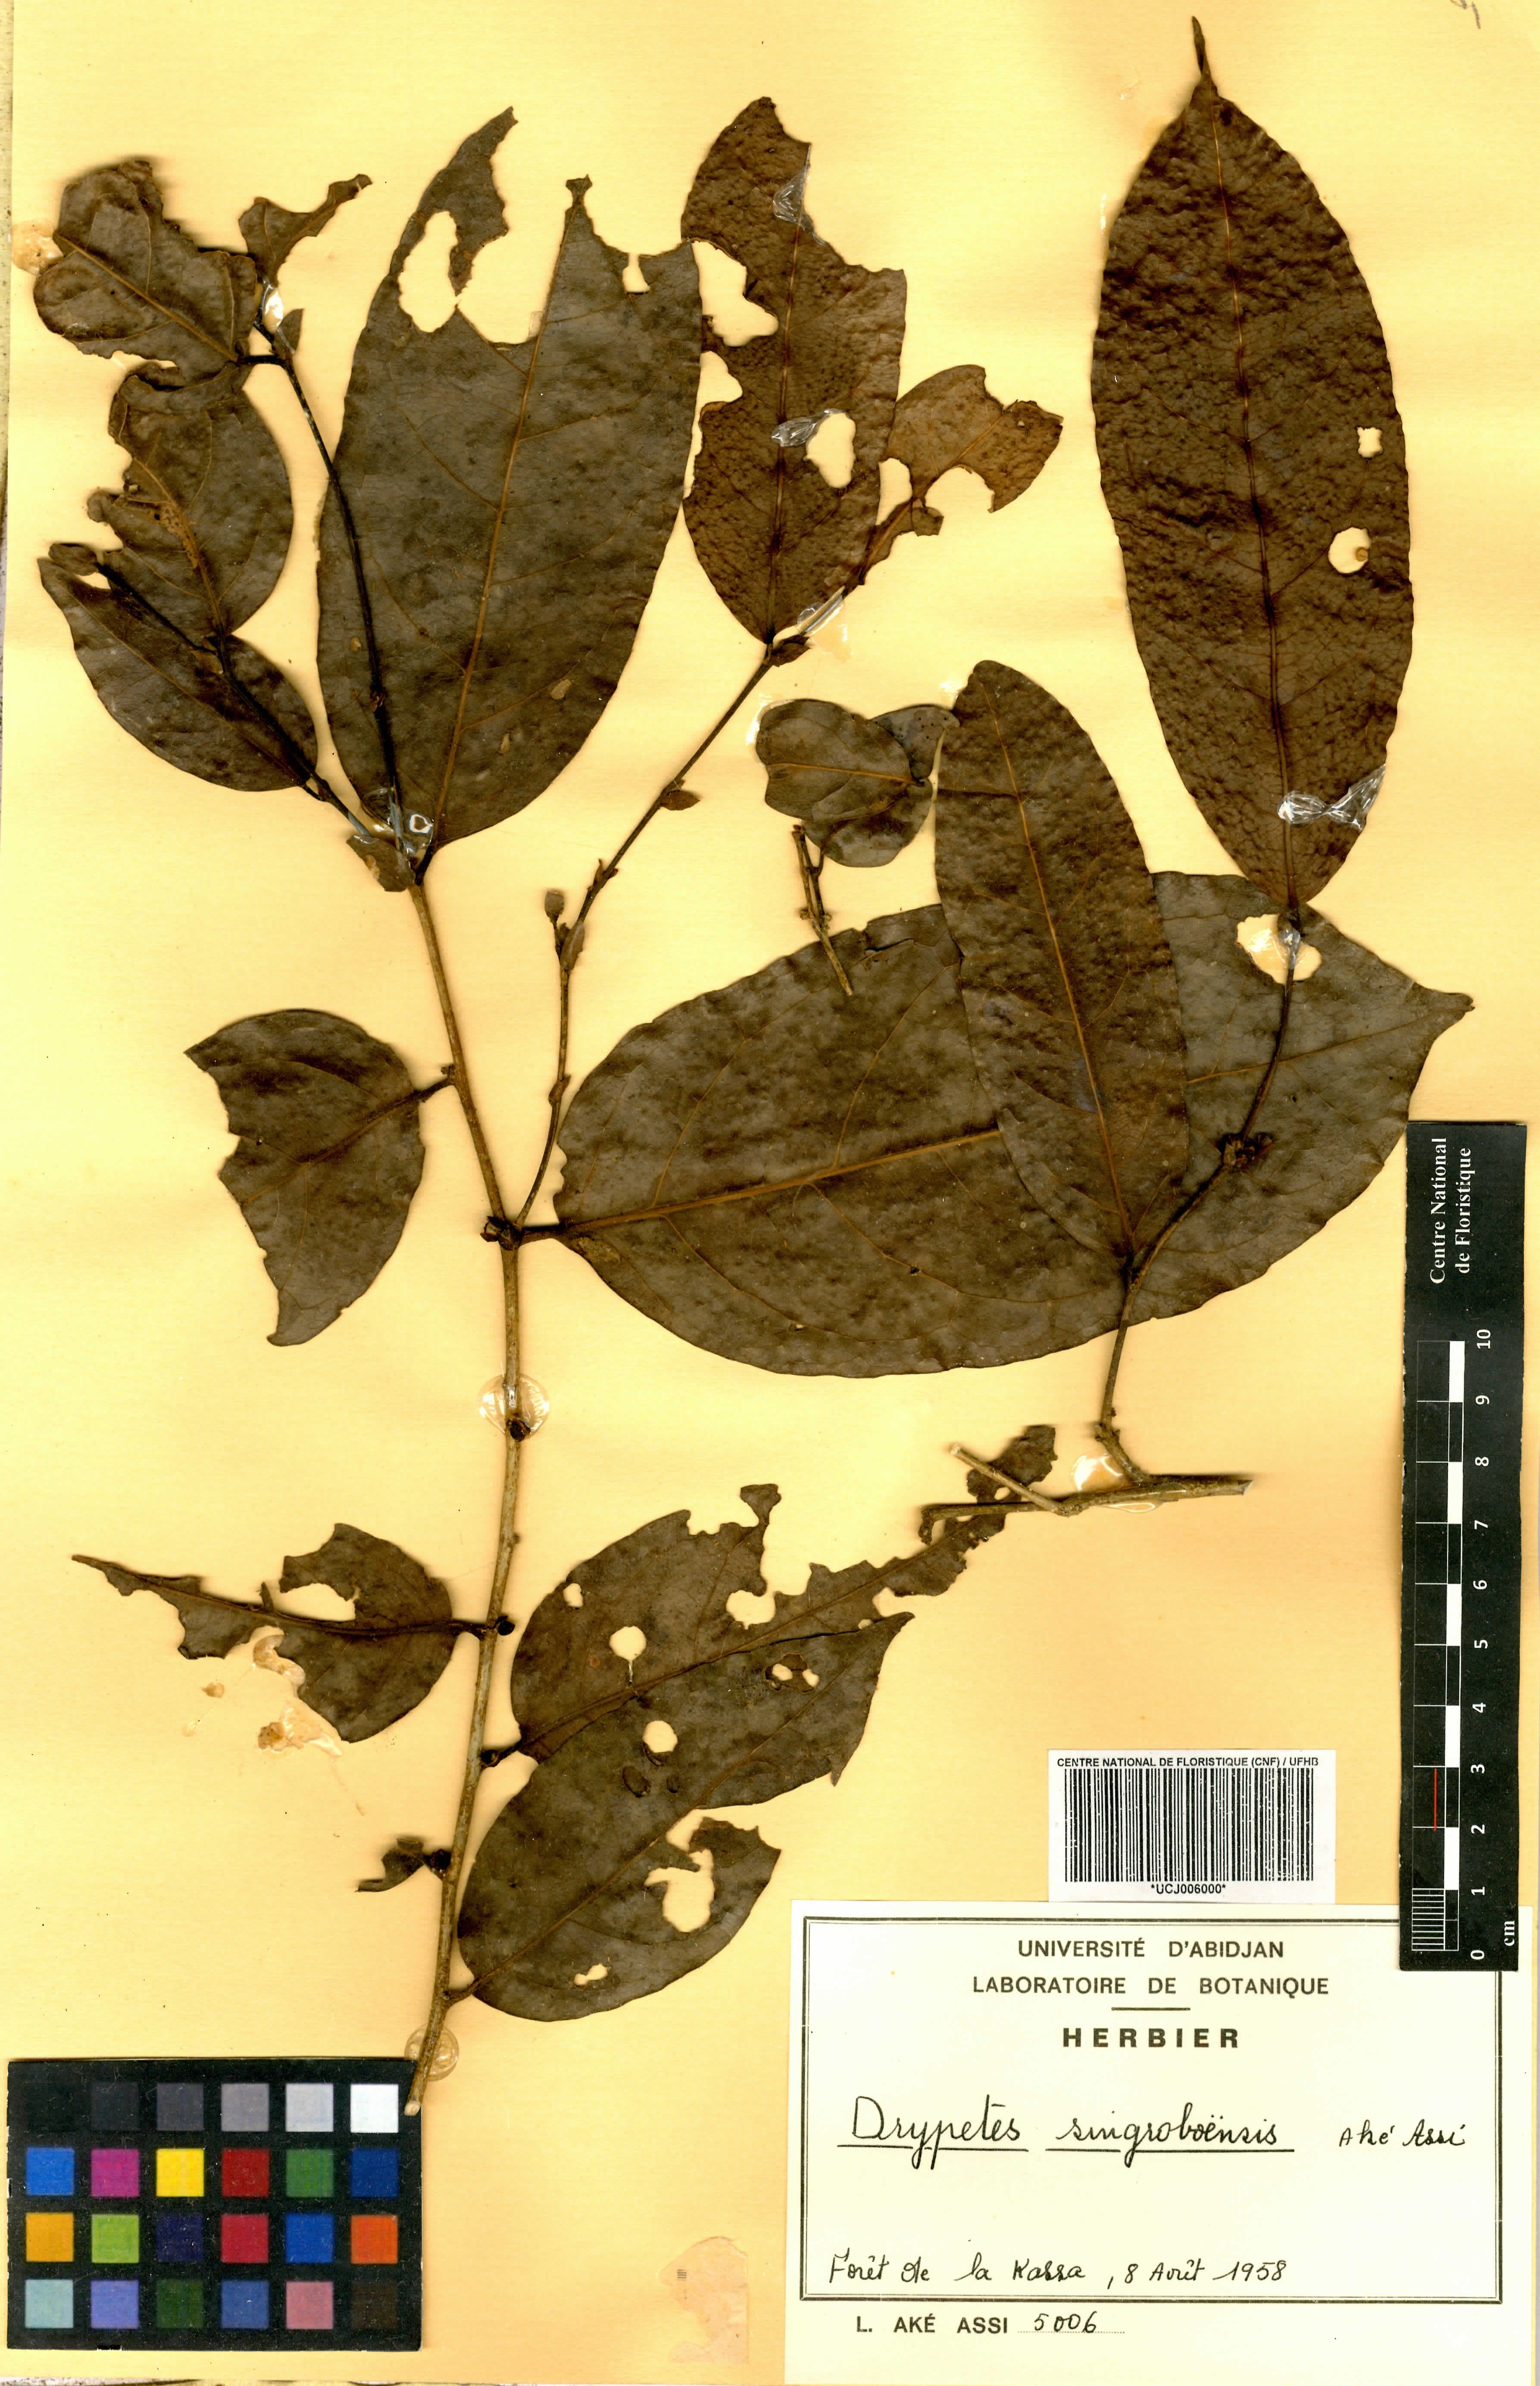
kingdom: Plantae
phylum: Tracheophyta
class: Magnoliopsida
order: Malpighiales
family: Putranjivaceae
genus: Drypetes
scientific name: Drypetes singroboensis
